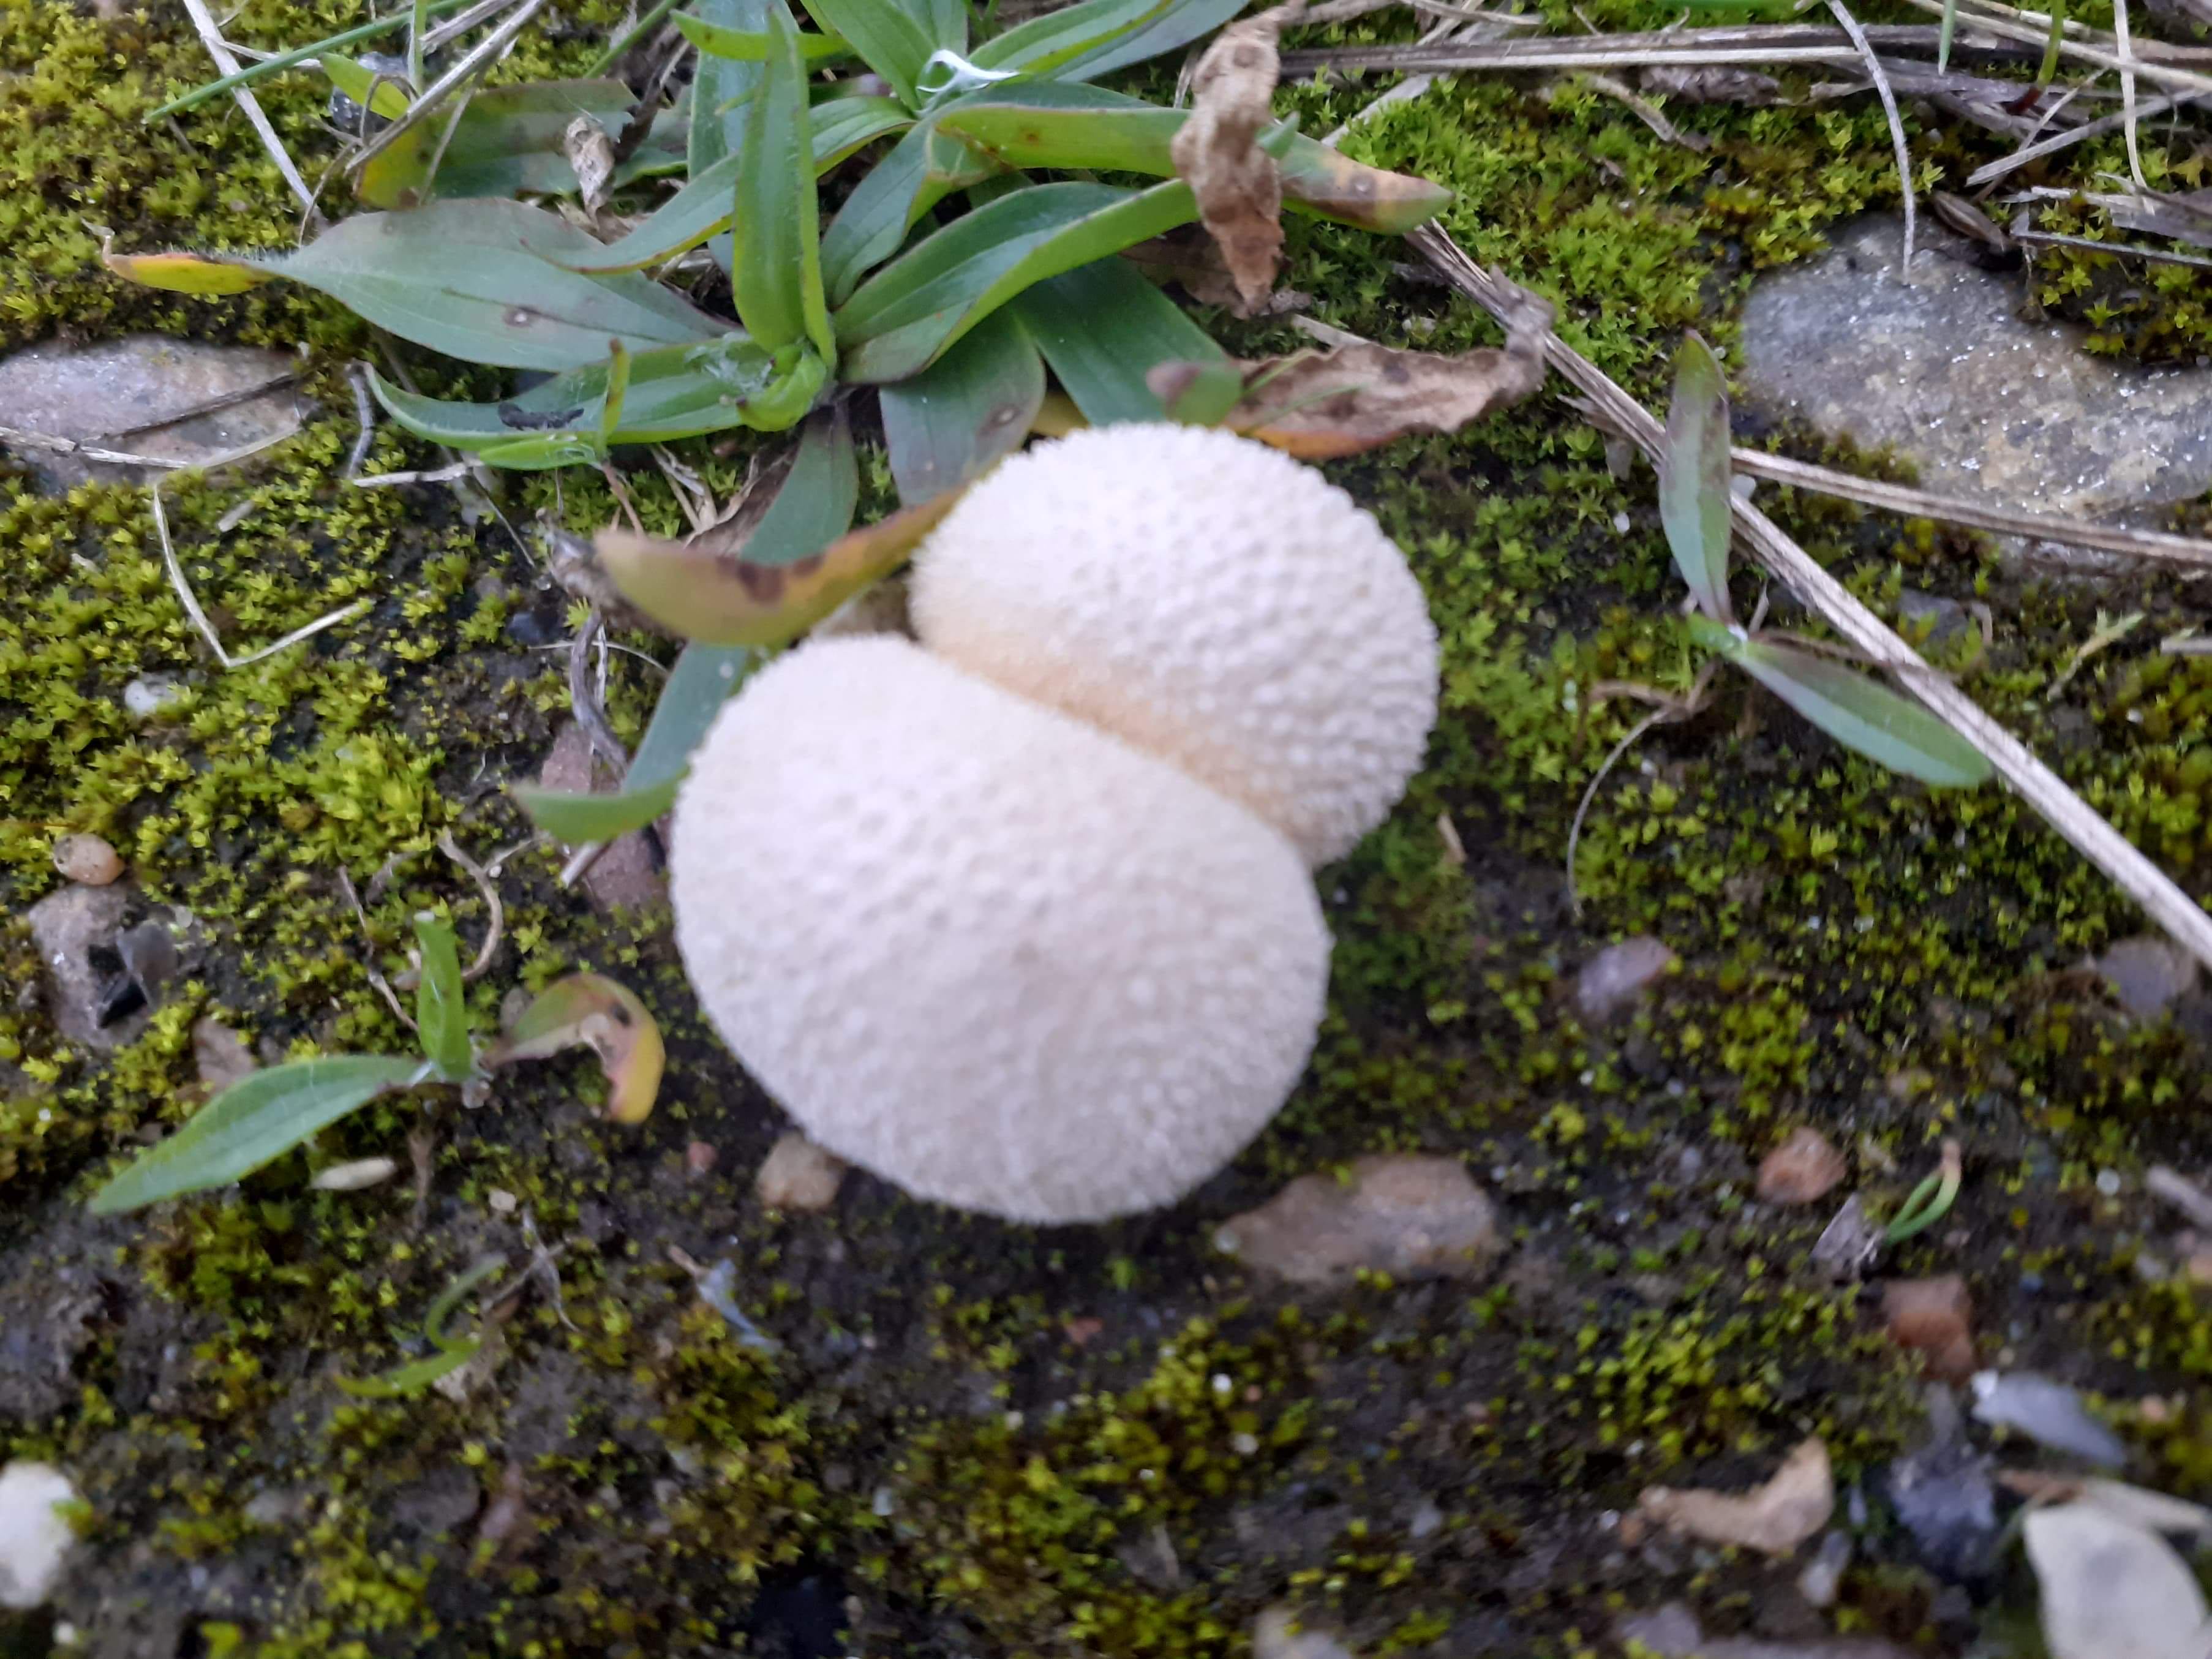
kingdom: Fungi
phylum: Basidiomycota
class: Agaricomycetes
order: Agaricales
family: Agaricaceae
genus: Lycoperdon
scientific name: Lycoperdon
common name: støvbold
